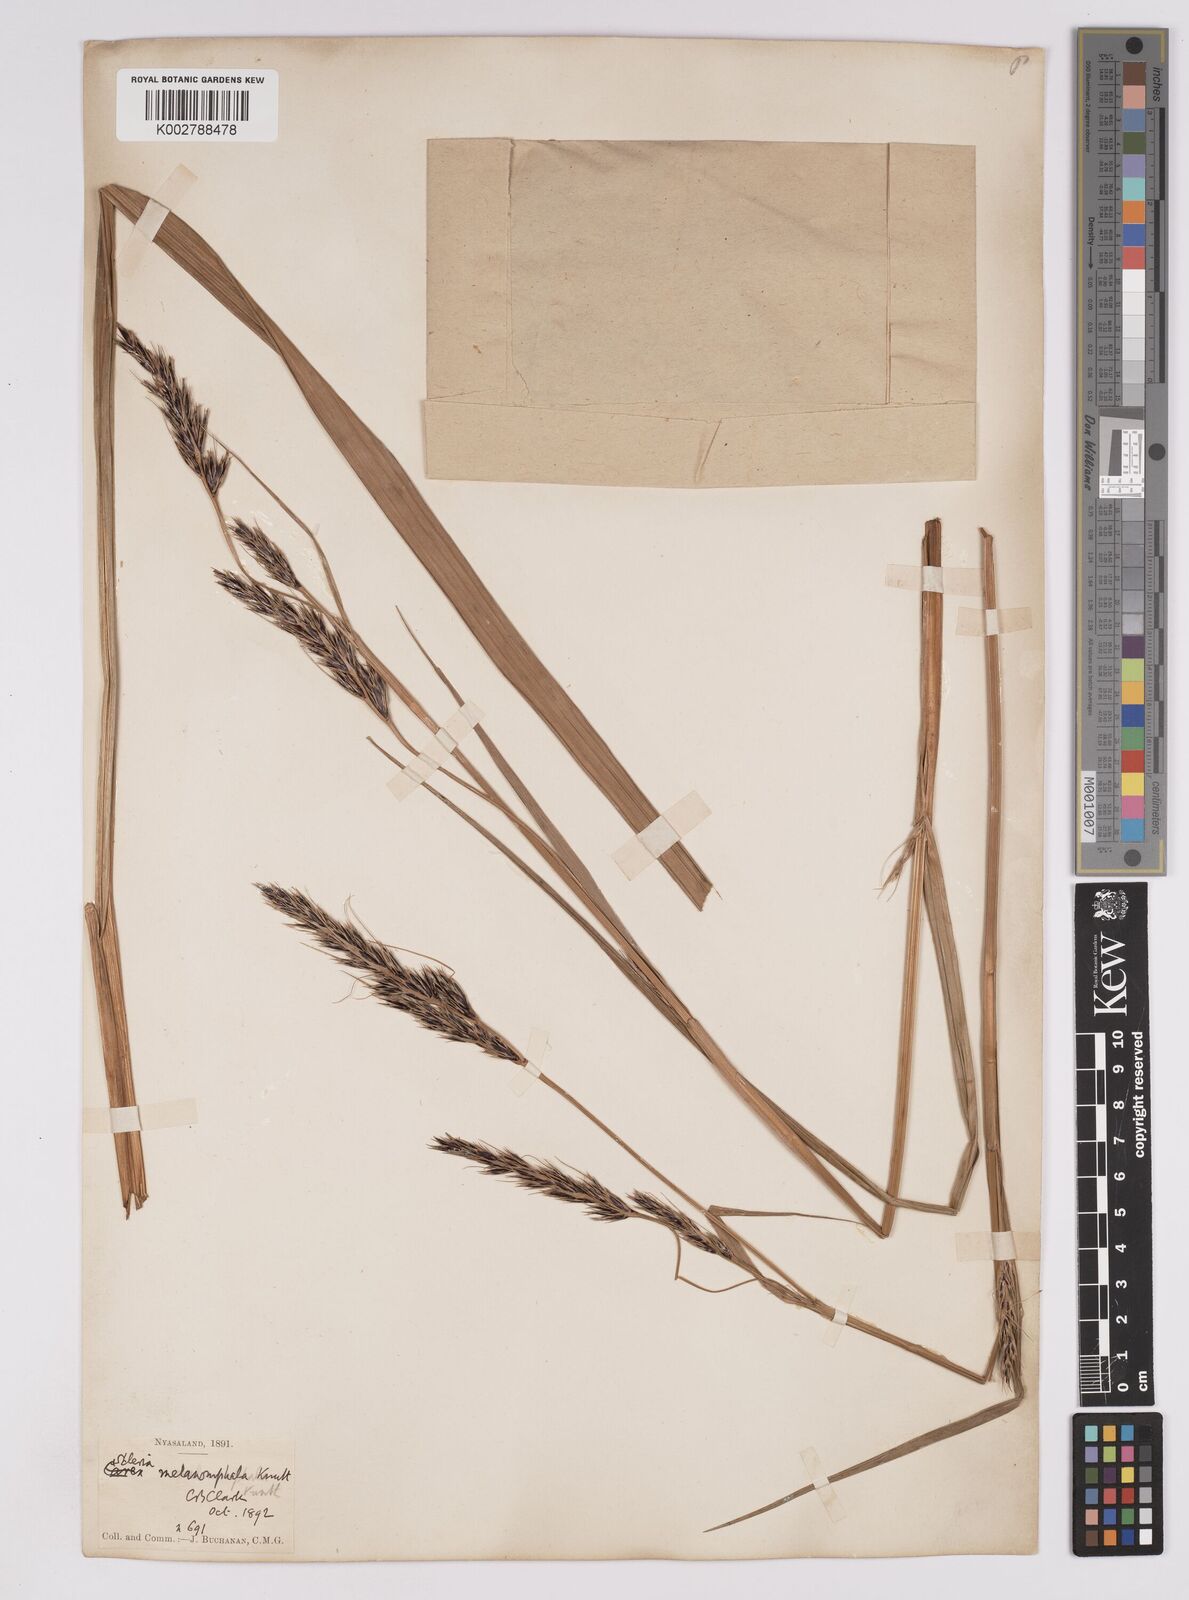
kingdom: Plantae
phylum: Tracheophyta
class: Liliopsida
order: Poales
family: Cyperaceae
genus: Scleria
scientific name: Scleria melanomphala
